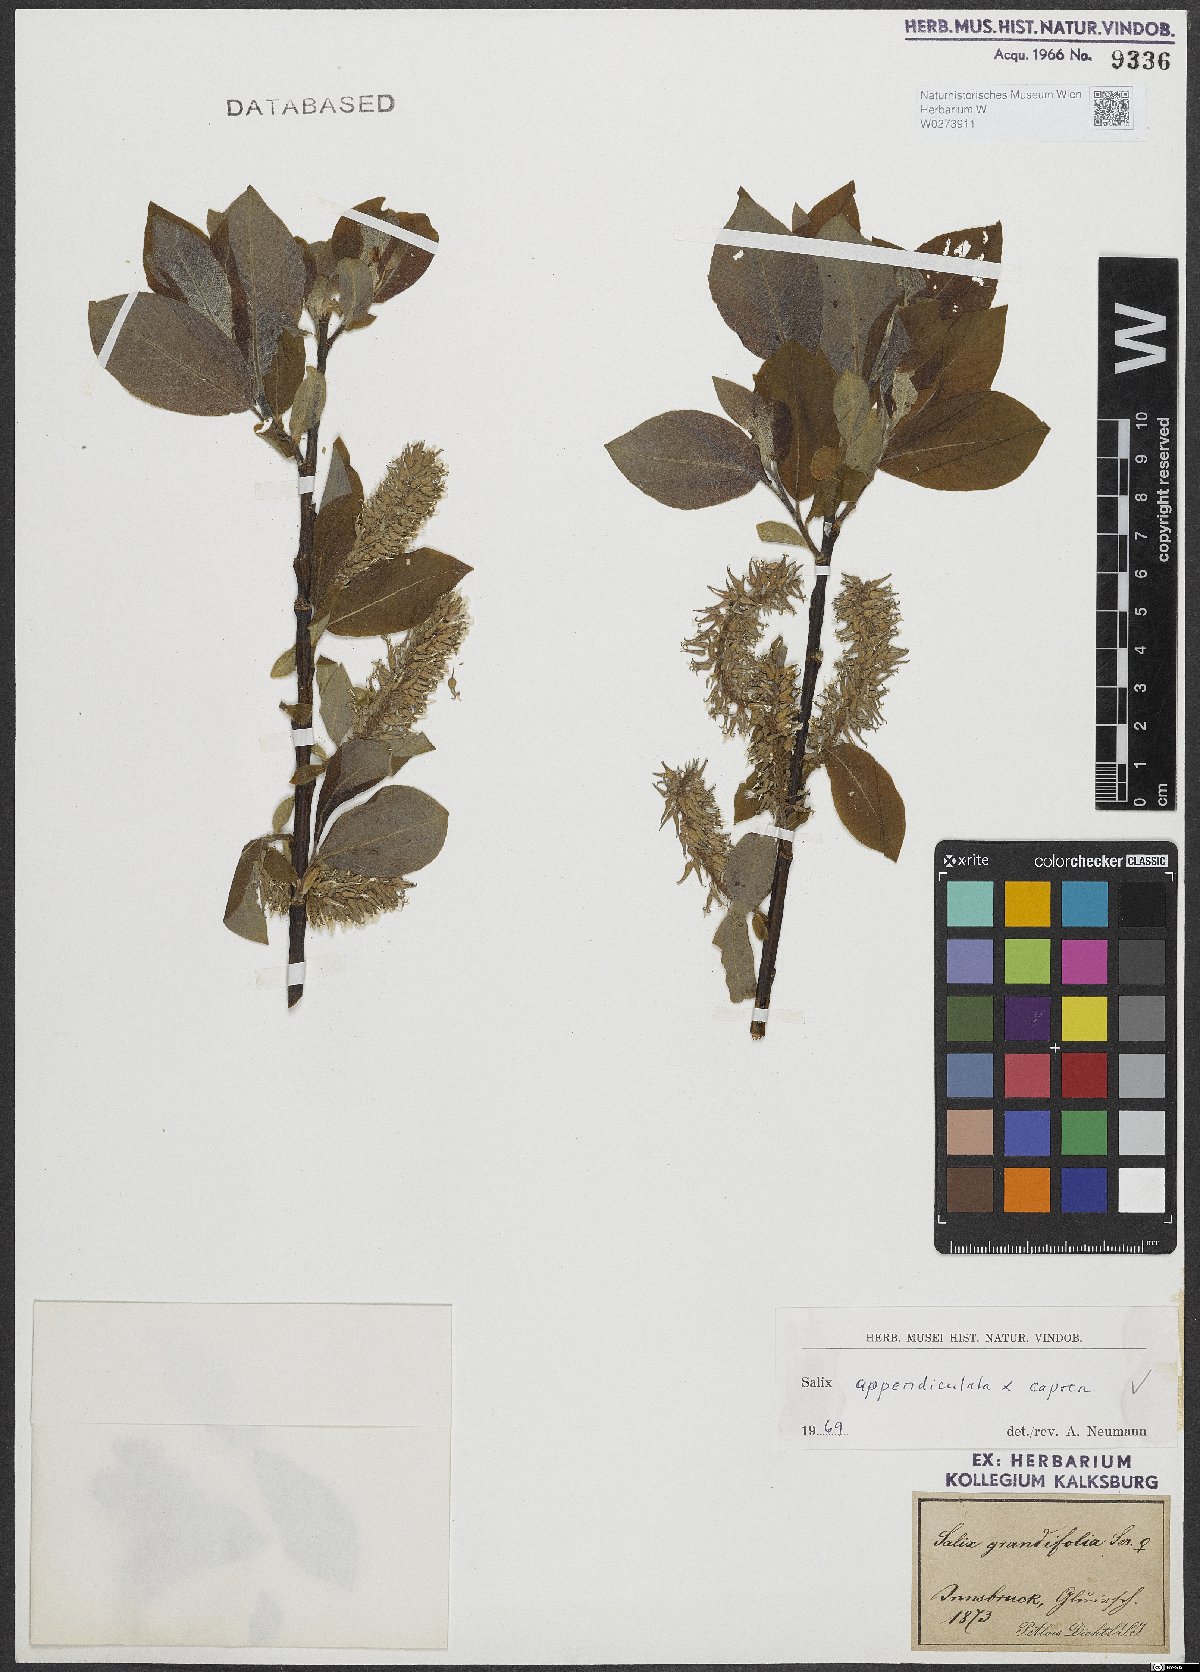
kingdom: Plantae
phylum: Tracheophyta
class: Magnoliopsida
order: Malpighiales
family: Salicaceae
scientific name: Salicaceae
